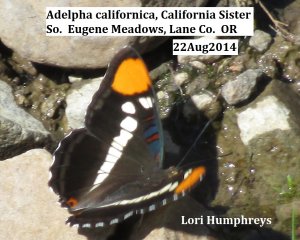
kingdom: Animalia
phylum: Arthropoda
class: Insecta
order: Lepidoptera
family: Nymphalidae
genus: Limenitis
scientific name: Limenitis bredowii
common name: California Sister
